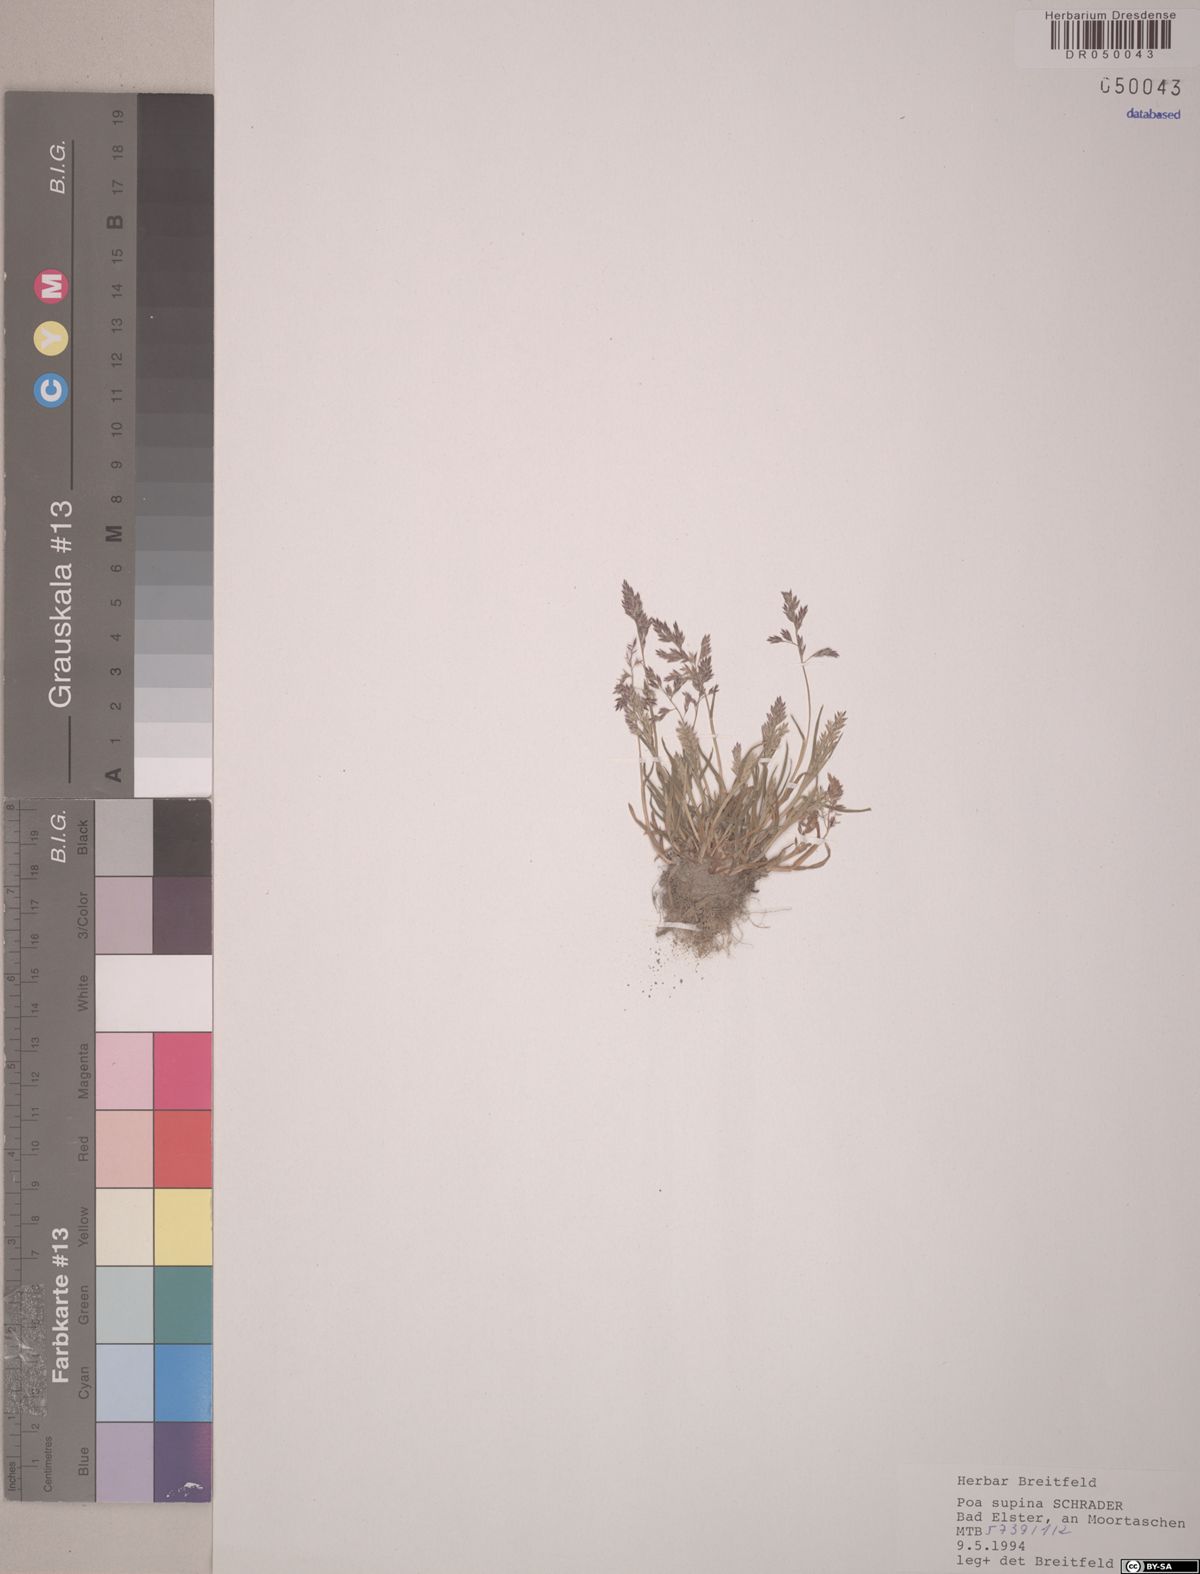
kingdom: Plantae
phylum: Tracheophyta
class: Liliopsida
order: Poales
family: Poaceae
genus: Poa
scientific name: Poa supina
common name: Supina bluegrass
